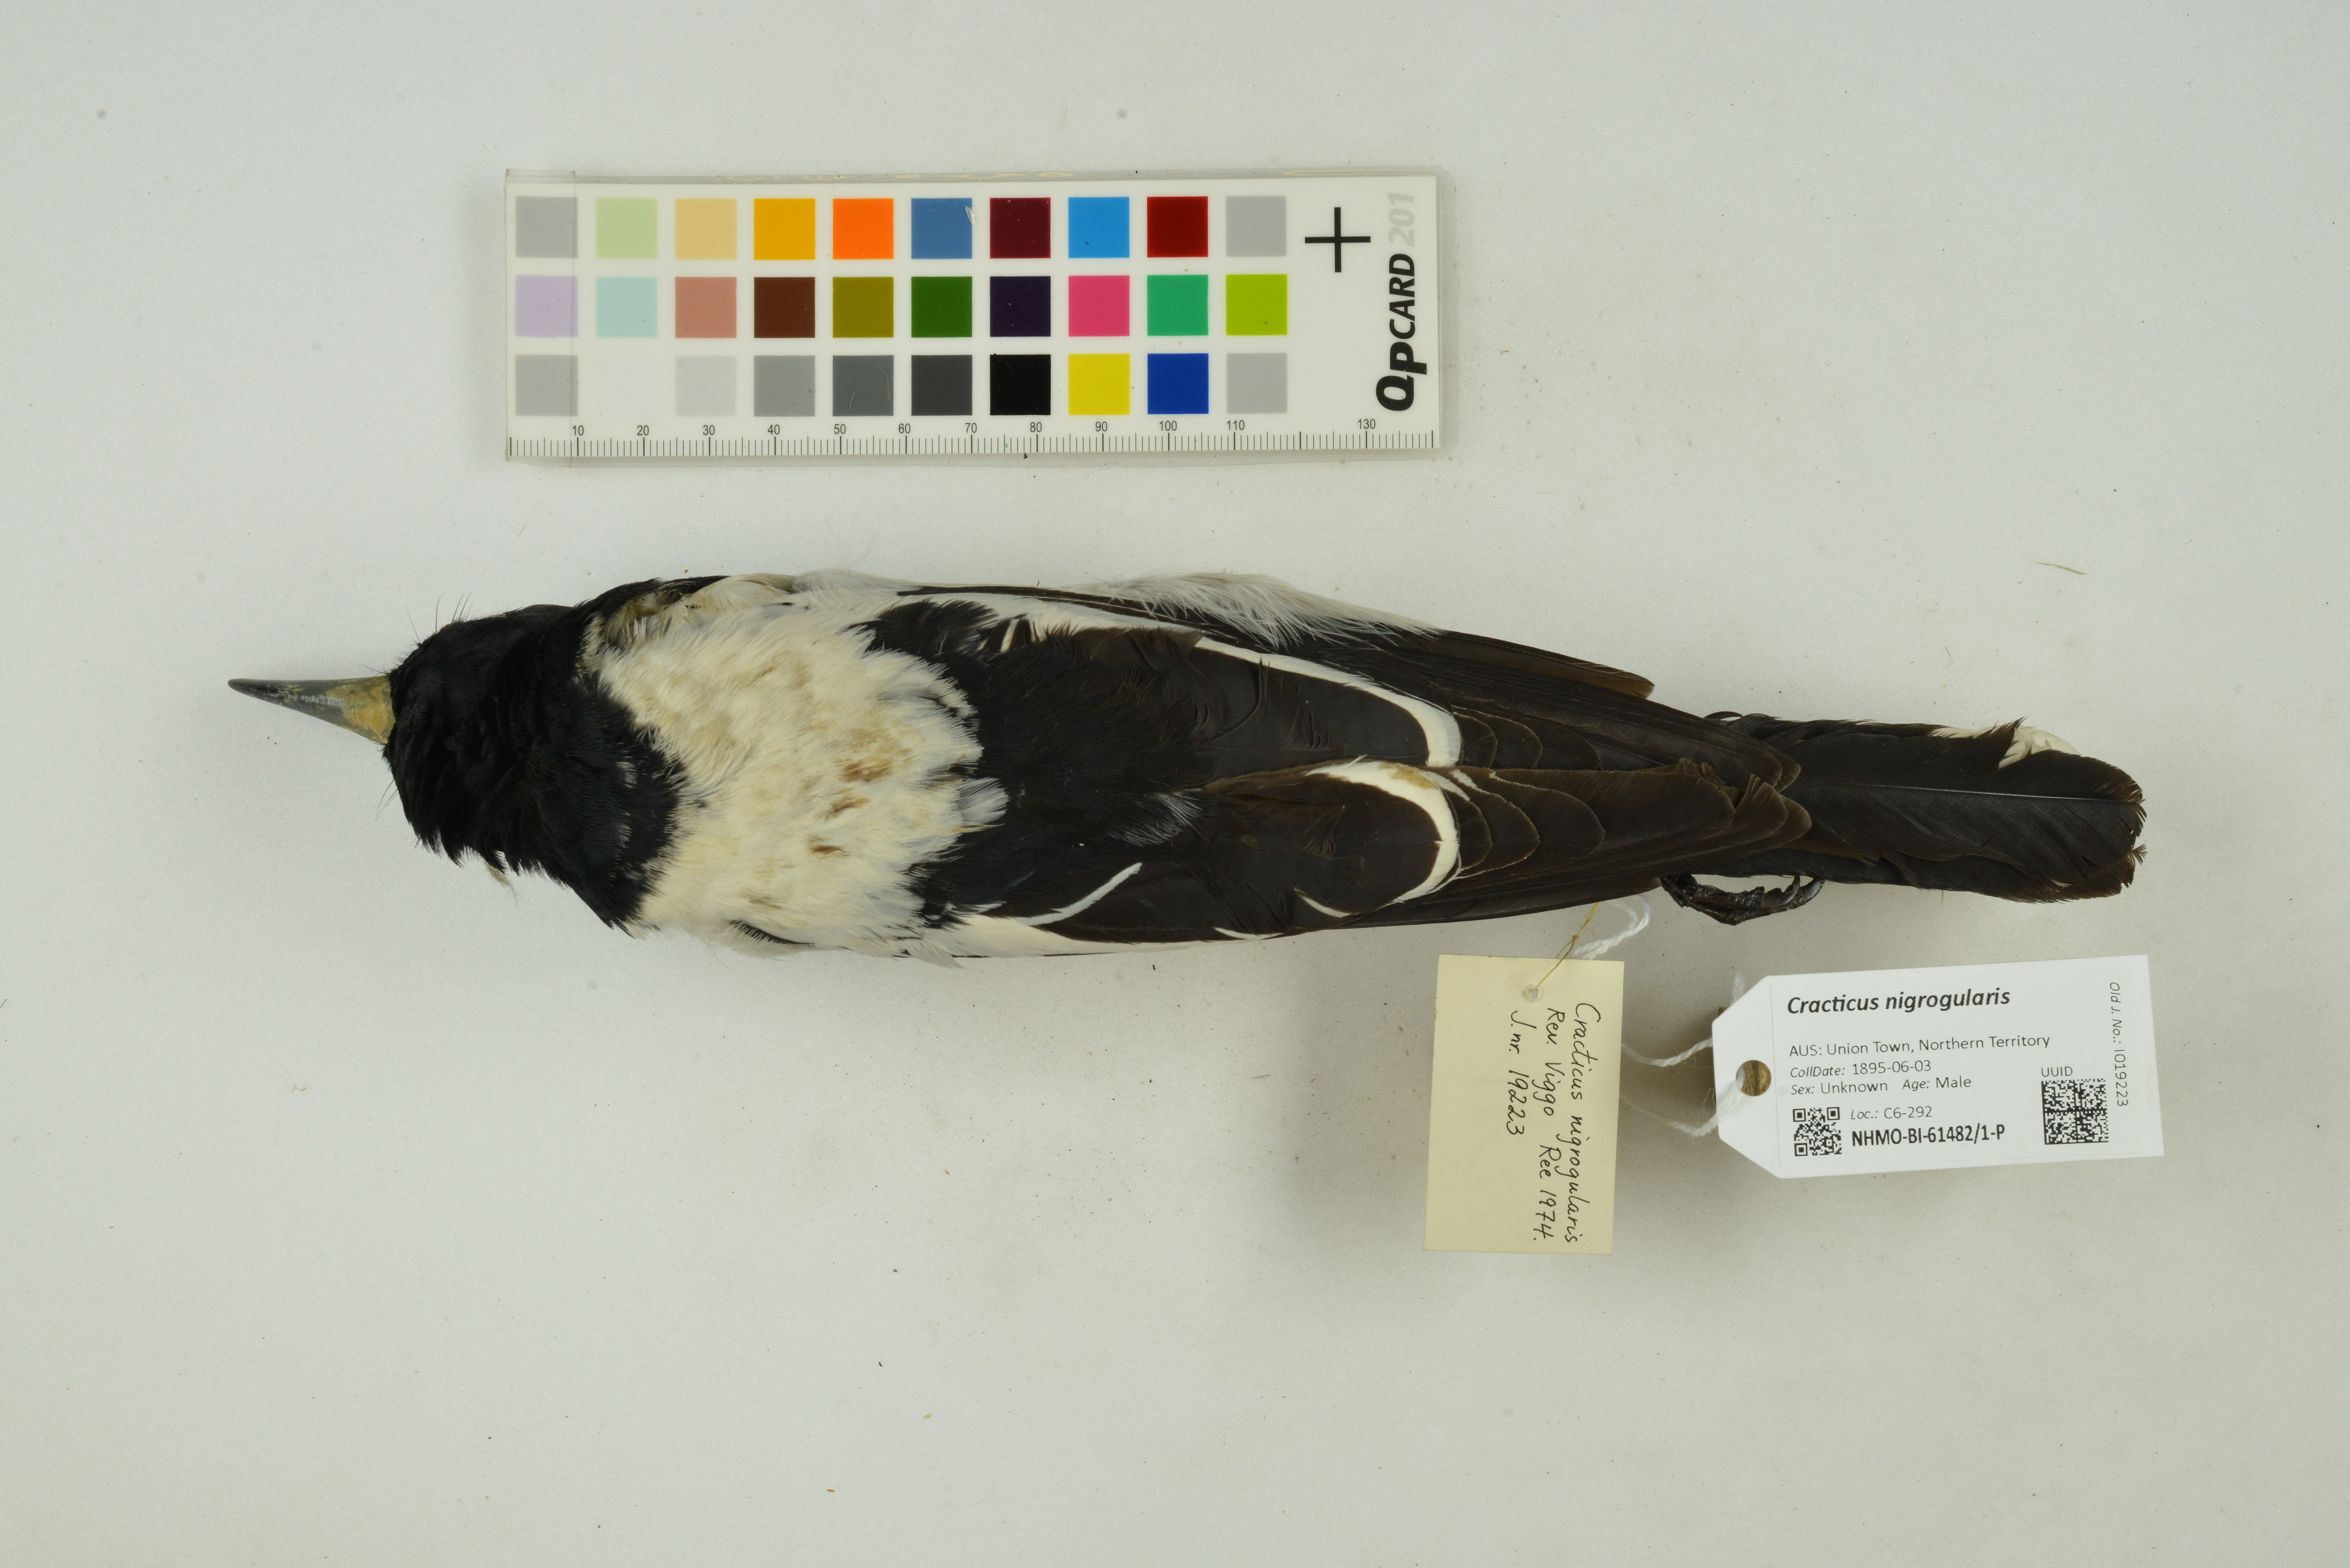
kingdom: Animalia
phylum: Chordata
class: Aves
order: Passeriformes
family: Cracticidae
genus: Cracticus
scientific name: Cracticus nigrogularis
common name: Pied butcherbird
